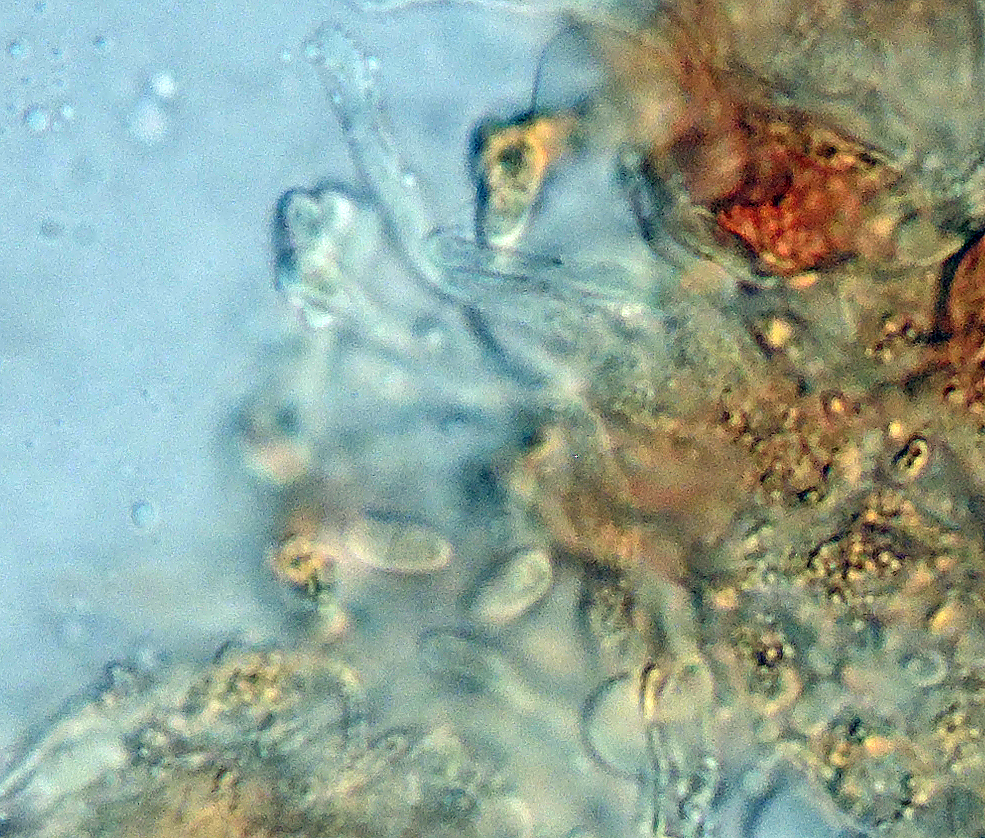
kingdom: Fungi
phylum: Basidiomycota
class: Agaricomycetes
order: Agaricales
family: Agaricaceae
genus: Cystolepiota
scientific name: Cystolepiota adulterina
